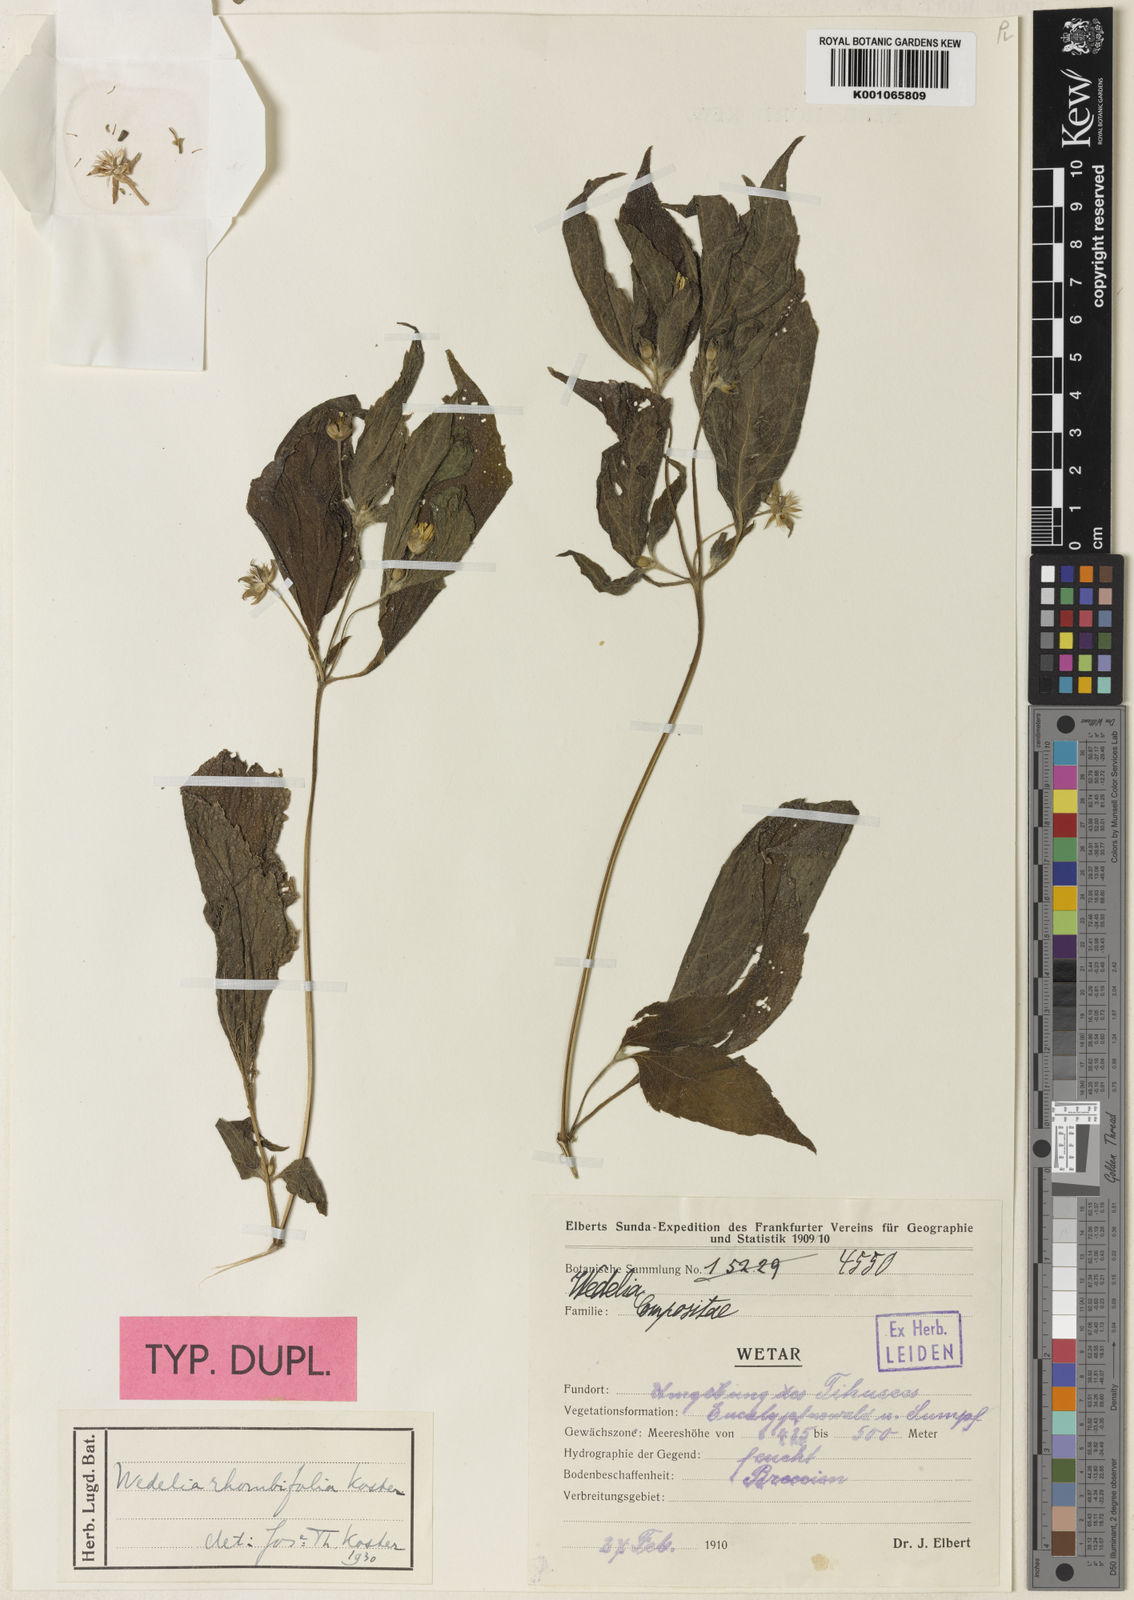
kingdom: Plantae
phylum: Tracheophyta
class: Magnoliopsida
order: Asterales
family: Asteraceae
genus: Lipoblepharis
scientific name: Lipoblepharis urticifolia
